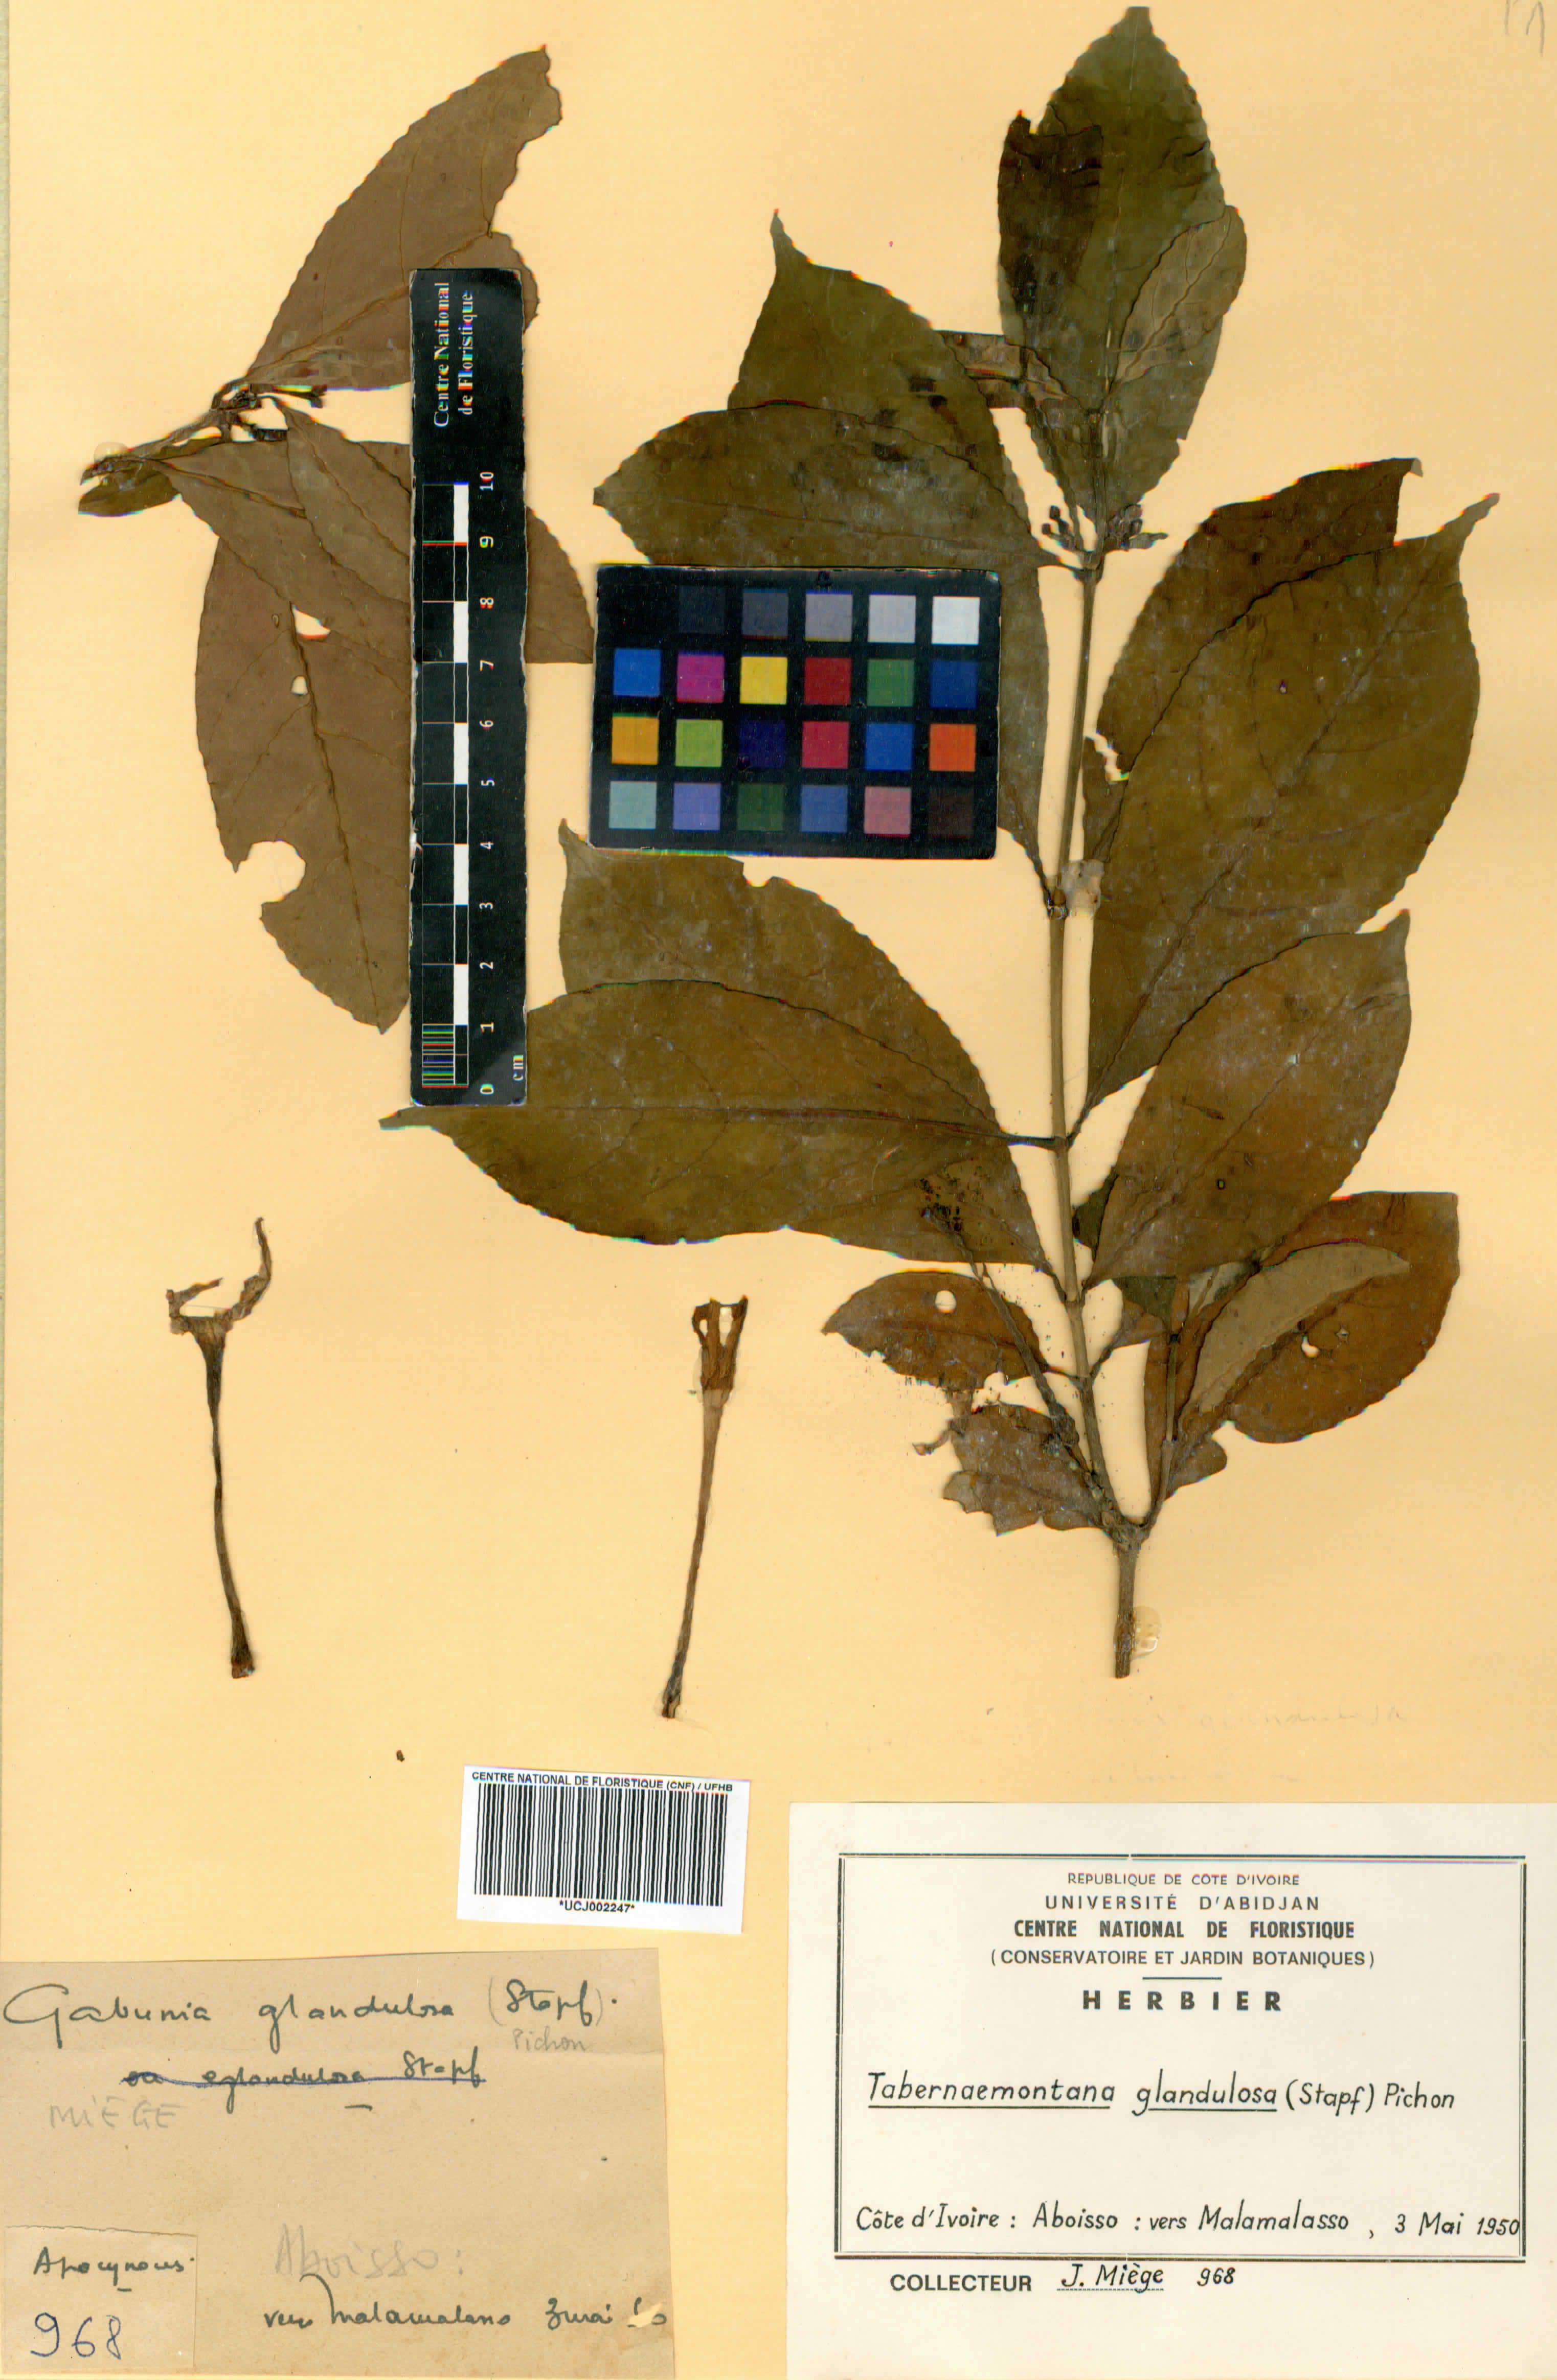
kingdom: Plantae
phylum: Tracheophyta
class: Magnoliopsida
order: Gentianales
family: Apocynaceae
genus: Tabernaemontana
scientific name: Tabernaemontana glandulosa
